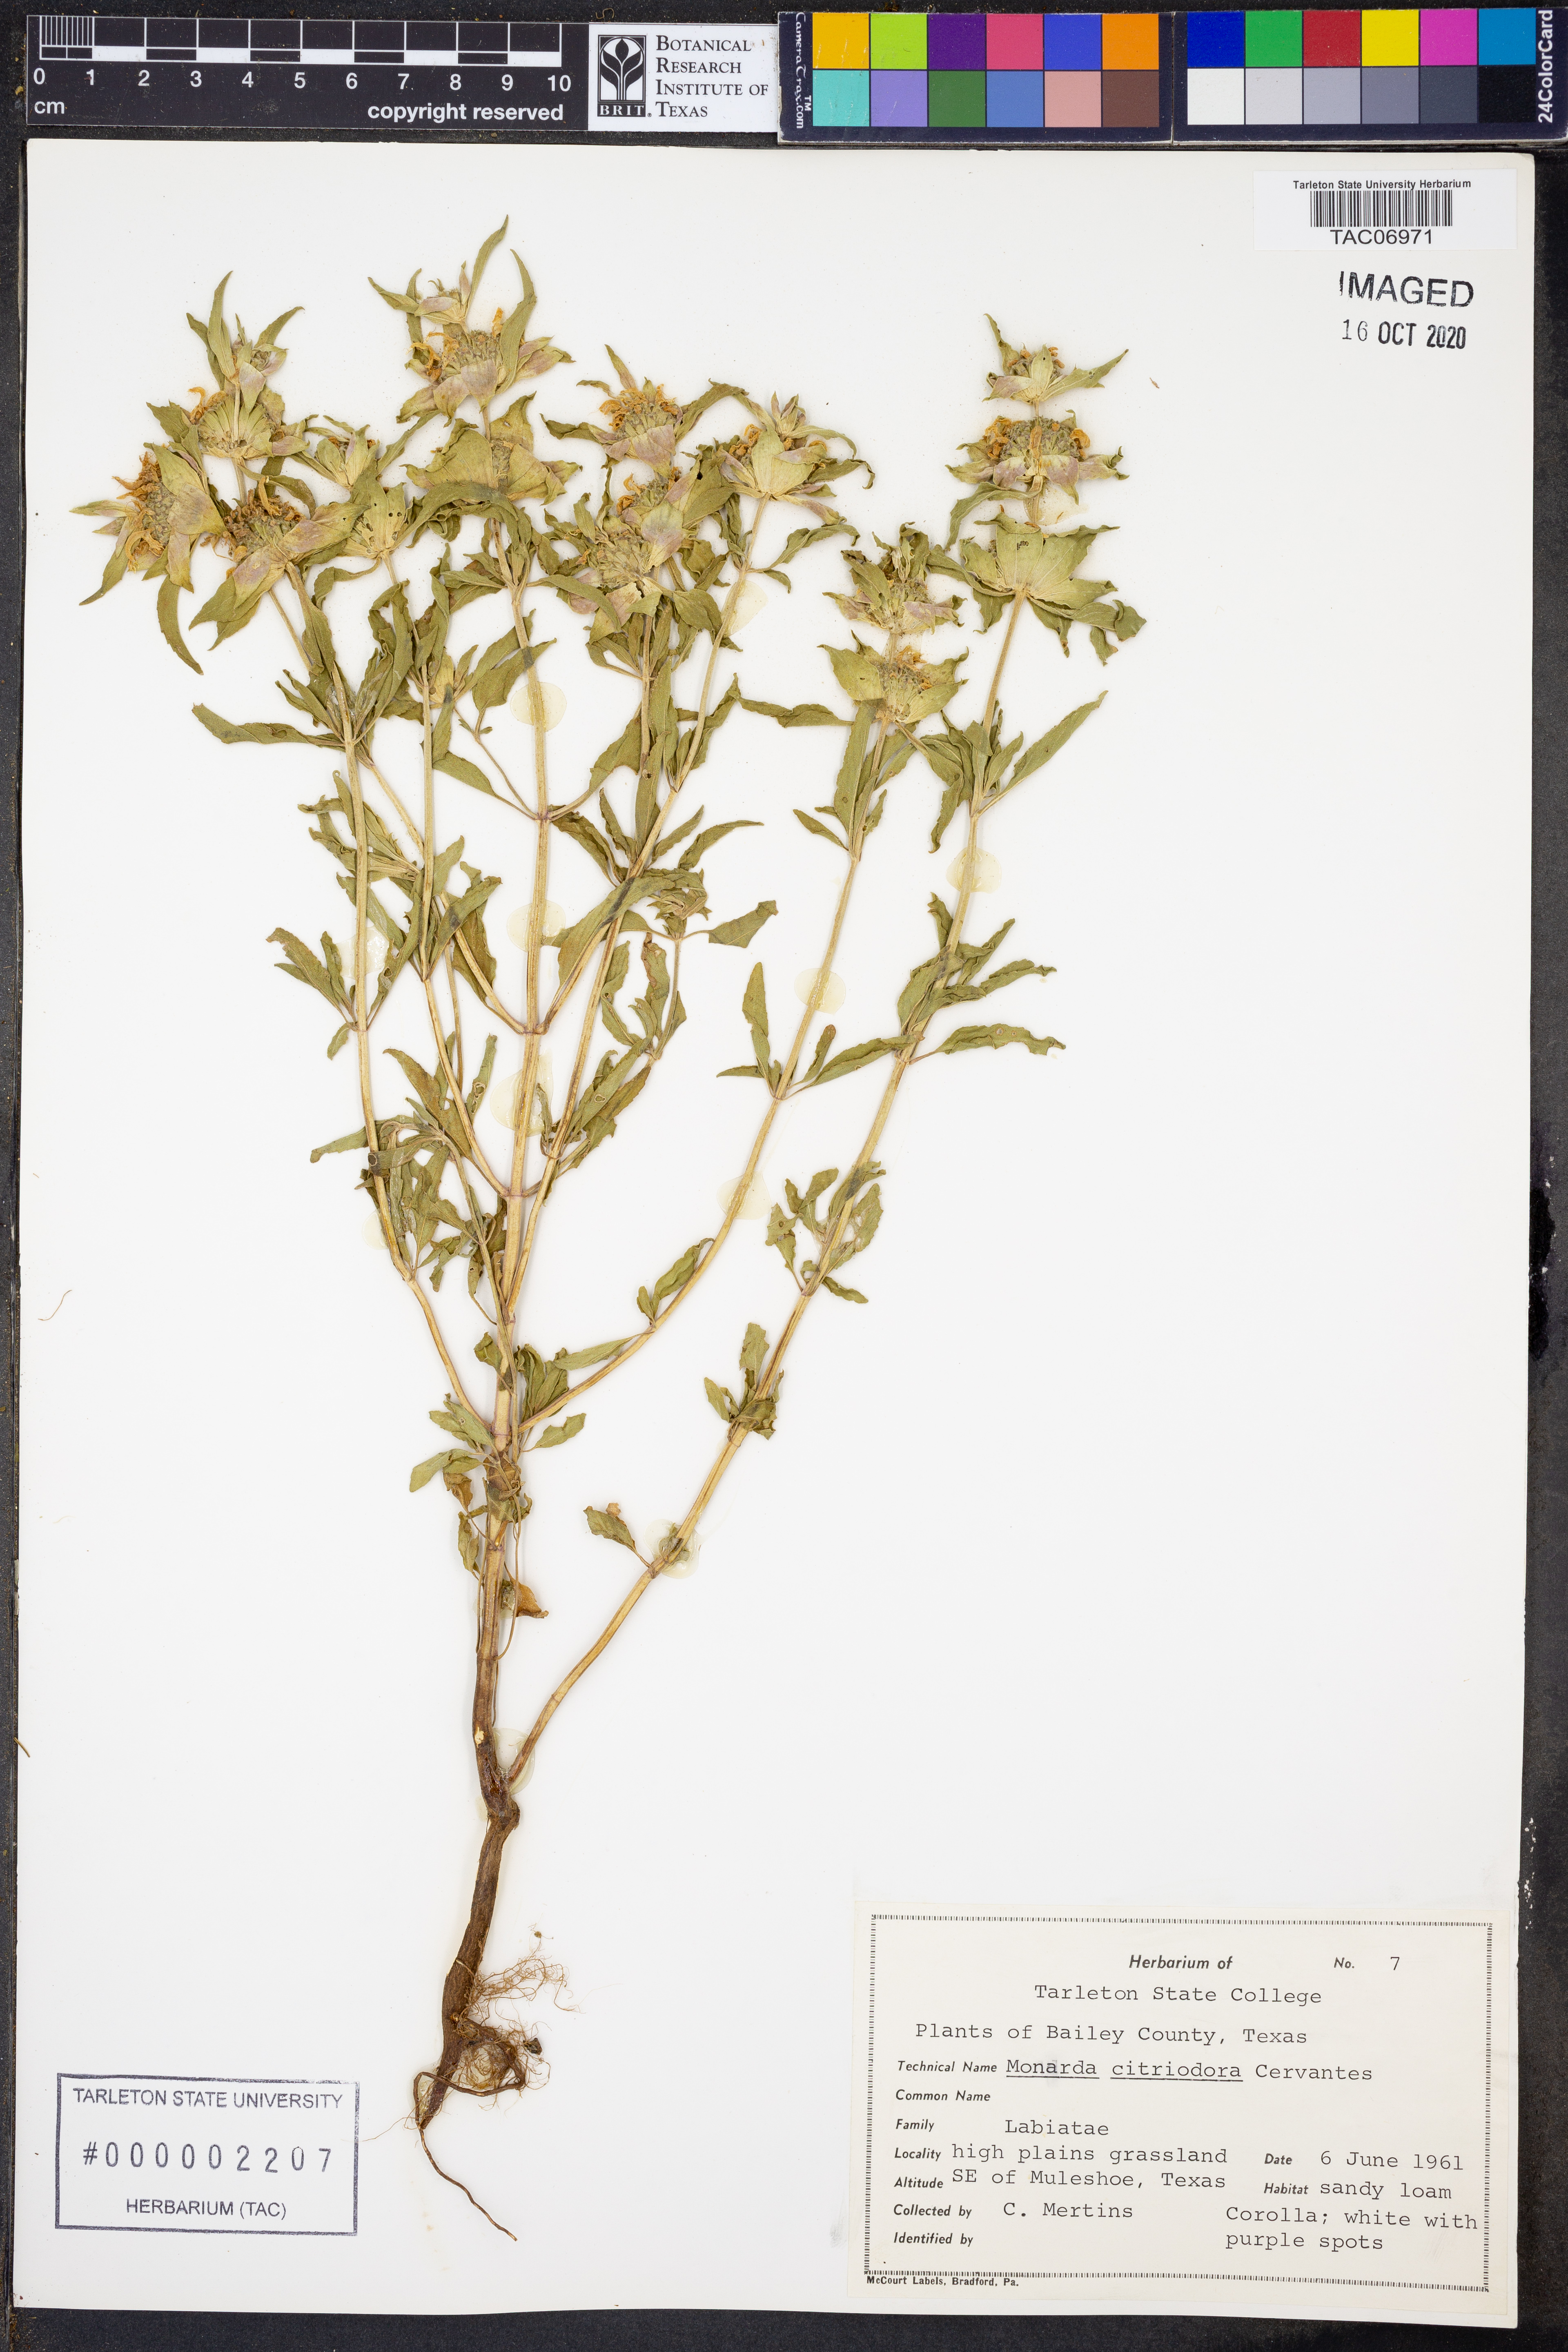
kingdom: Plantae
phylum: Tracheophyta
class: Magnoliopsida
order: Lamiales
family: Lamiaceae
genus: Monarda
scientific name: Monarda citriodora
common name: Lemon beebalm
